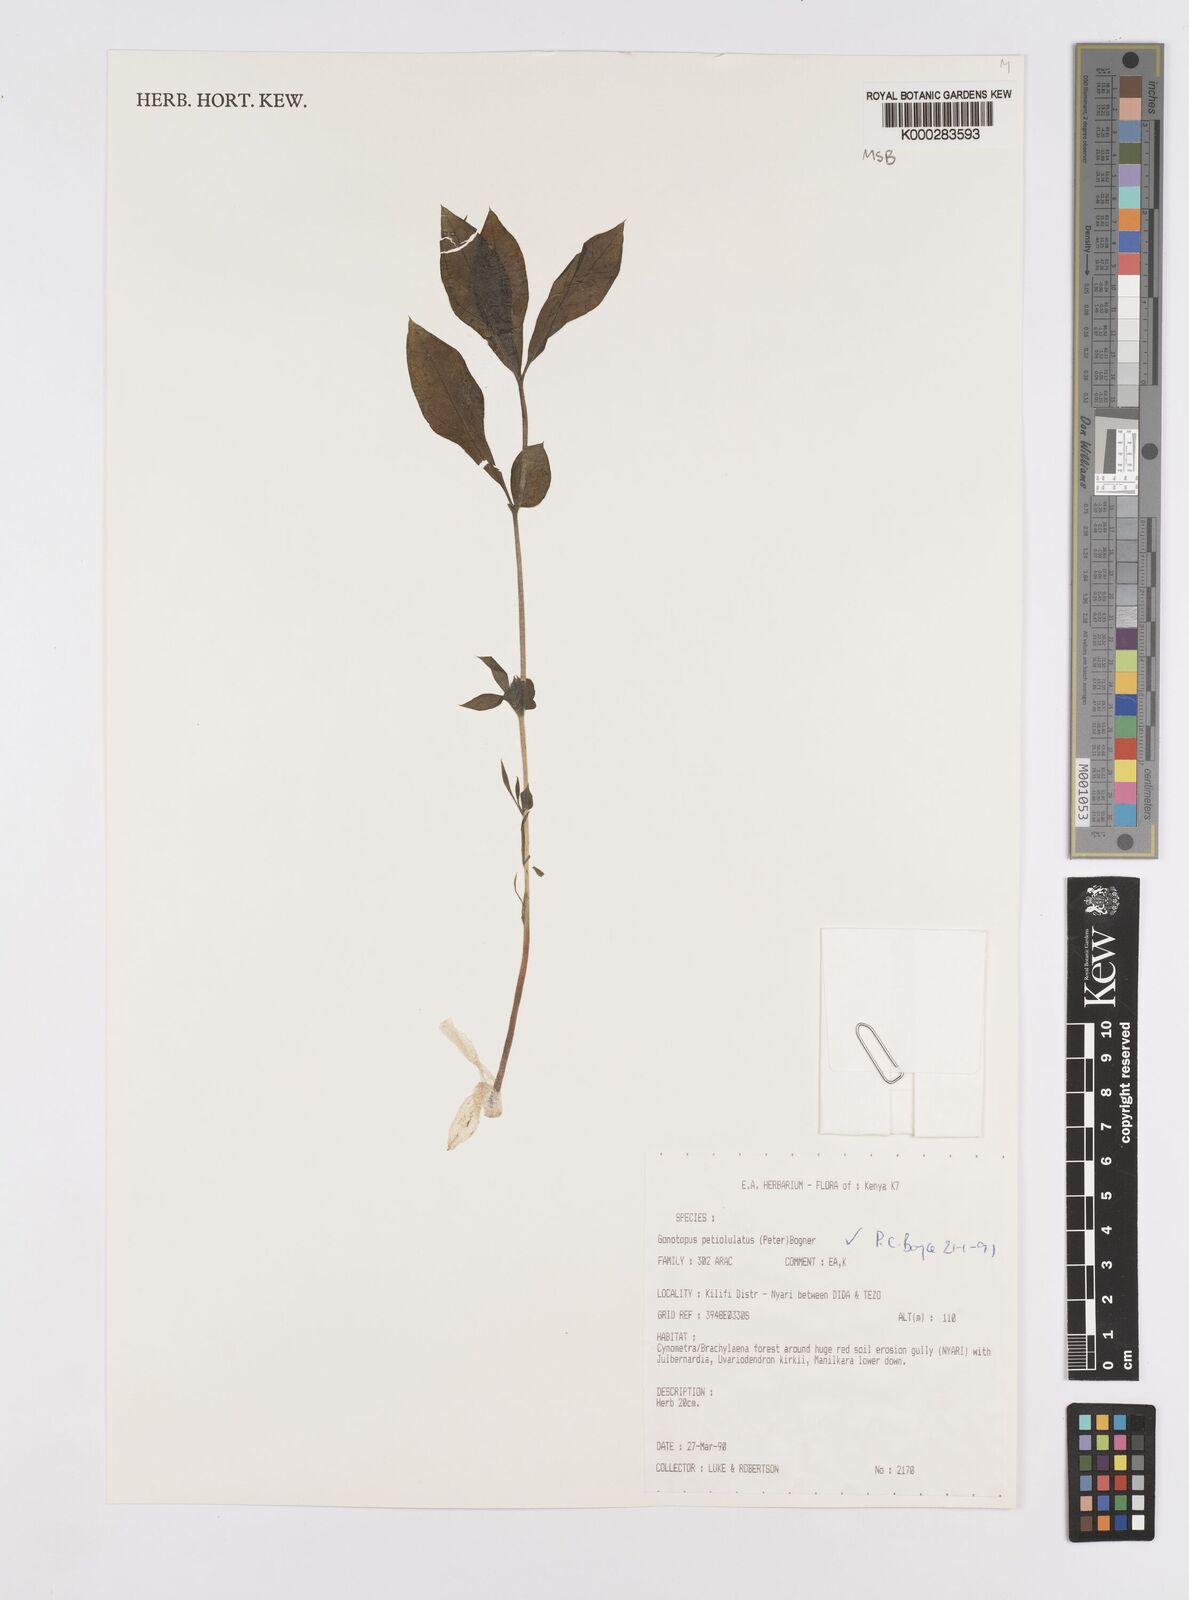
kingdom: Plantae
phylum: Tracheophyta
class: Liliopsida
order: Alismatales
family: Araceae
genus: Gonatopus
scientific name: Gonatopus petiolulatus
